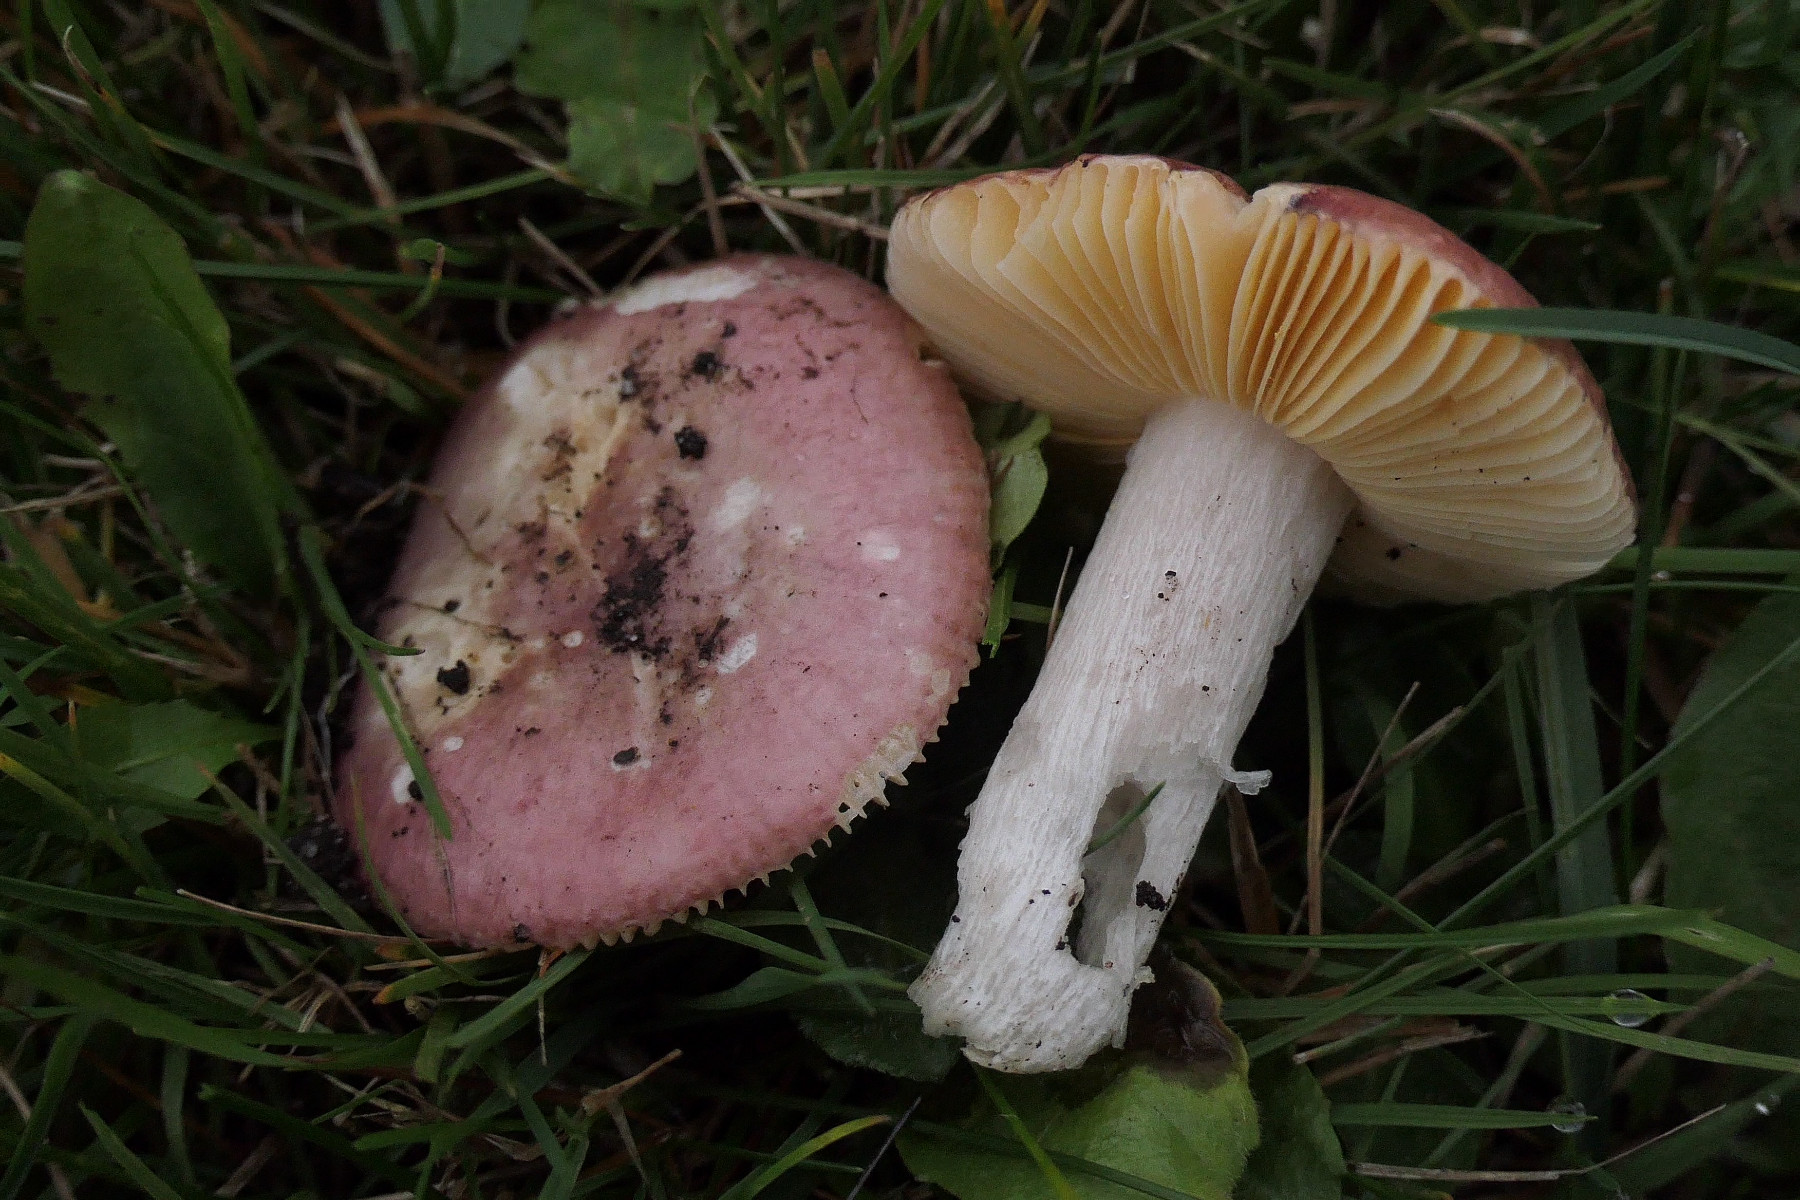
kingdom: Fungi
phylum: Basidiomycota
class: Agaricomycetes
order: Russulales
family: Russulaceae
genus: Russula
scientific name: Russula cessans
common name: fyrre-skørhat
